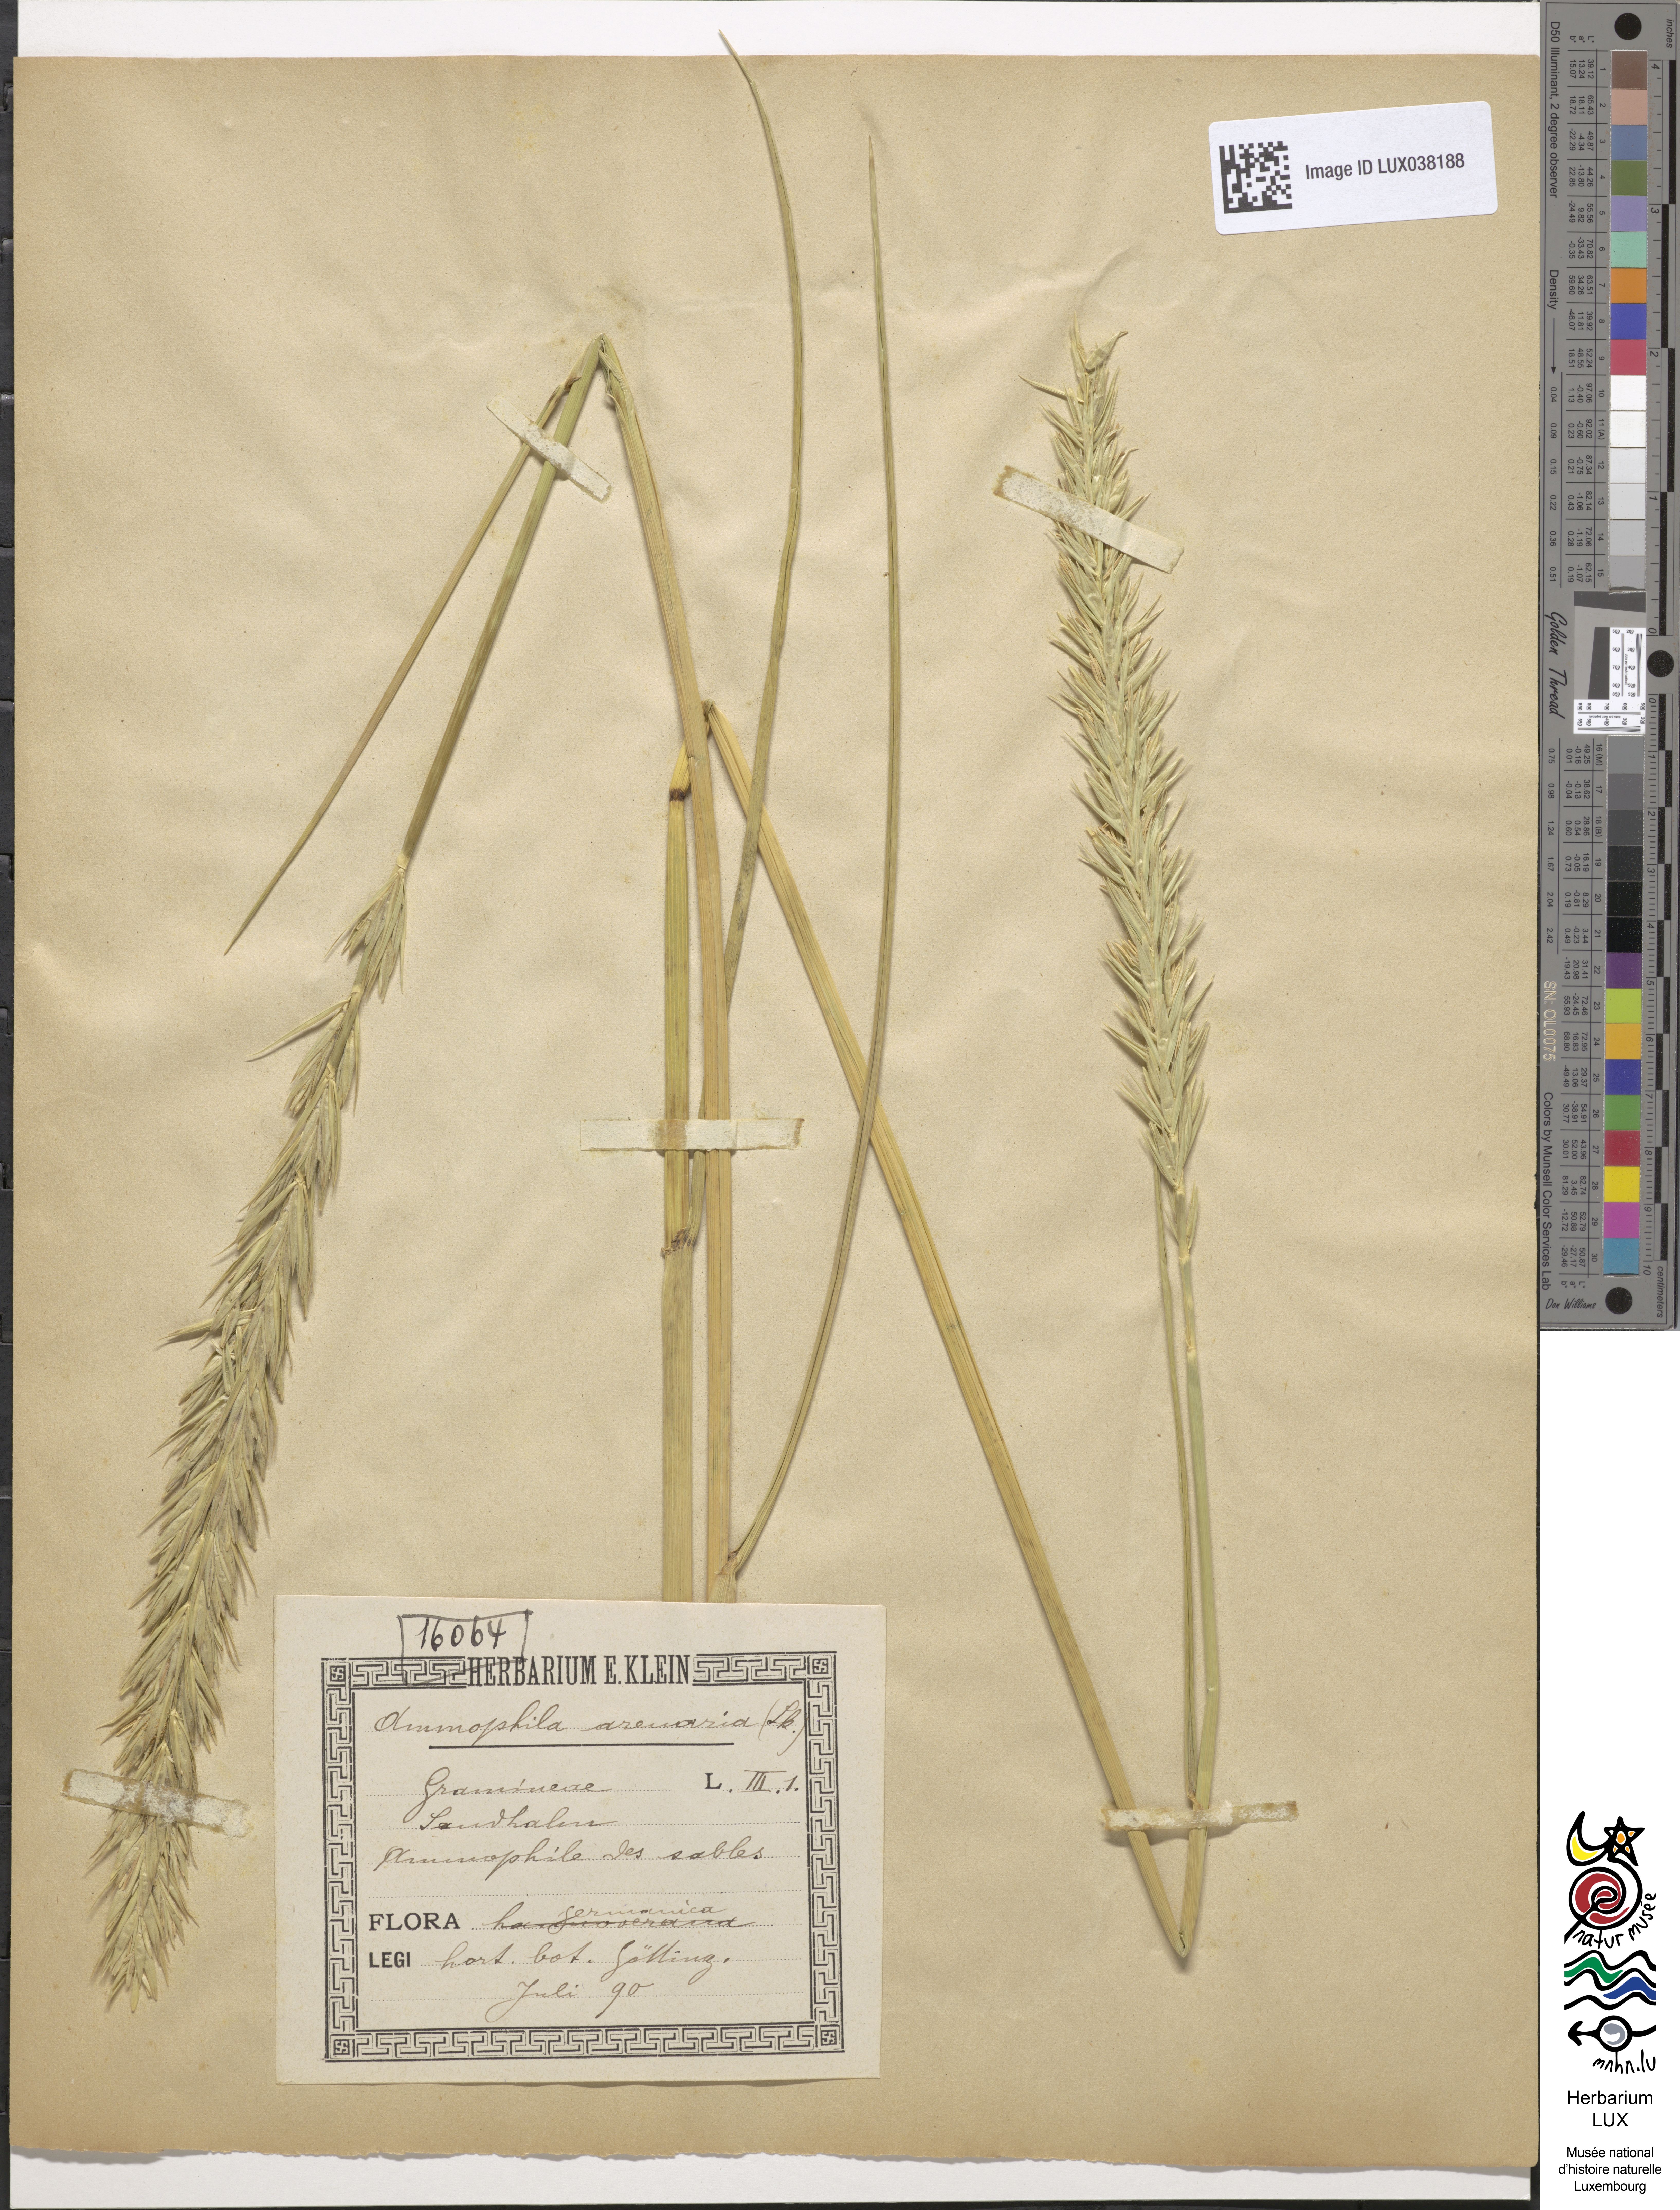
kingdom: Plantae
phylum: Tracheophyta
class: Liliopsida
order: Poales
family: Poaceae
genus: Calamagrostis
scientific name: Calamagrostis arenaria
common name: European beachgrass
